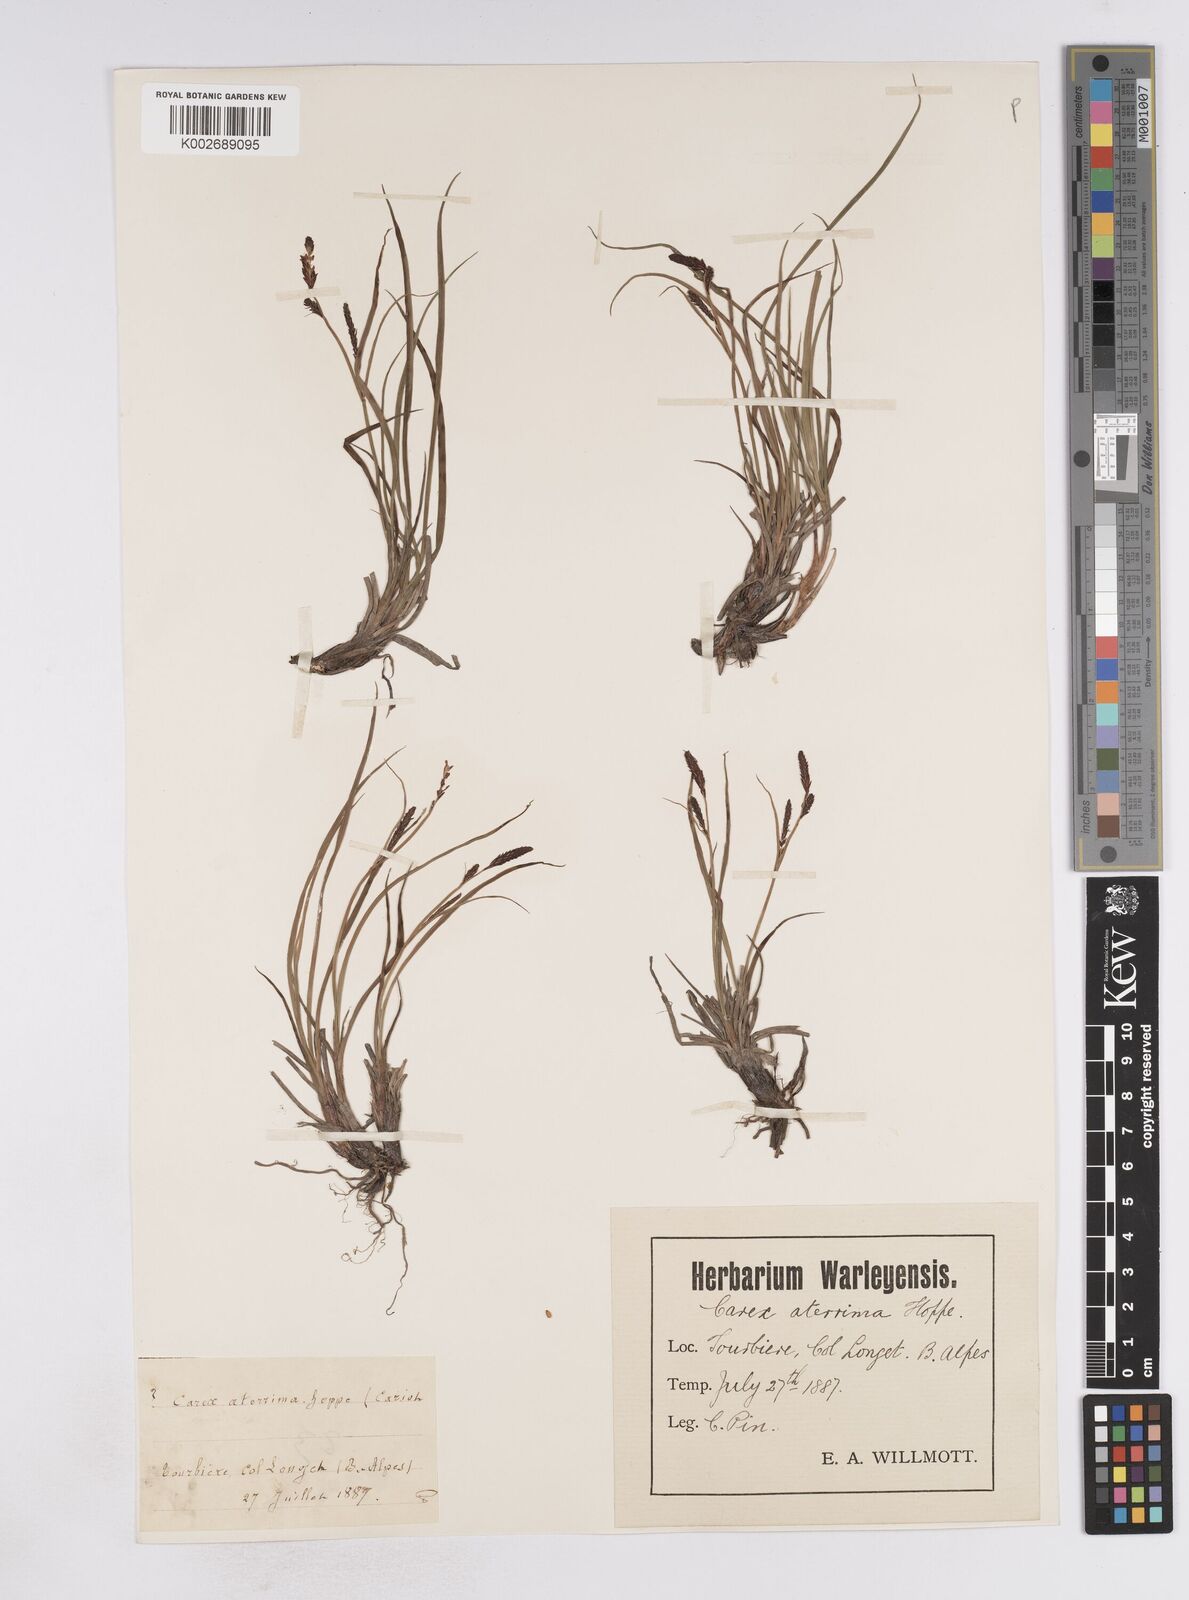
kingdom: Plantae
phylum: Tracheophyta
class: Liliopsida
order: Poales
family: Cyperaceae
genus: Carex
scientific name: Carex atrata
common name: Black alpine sedge
